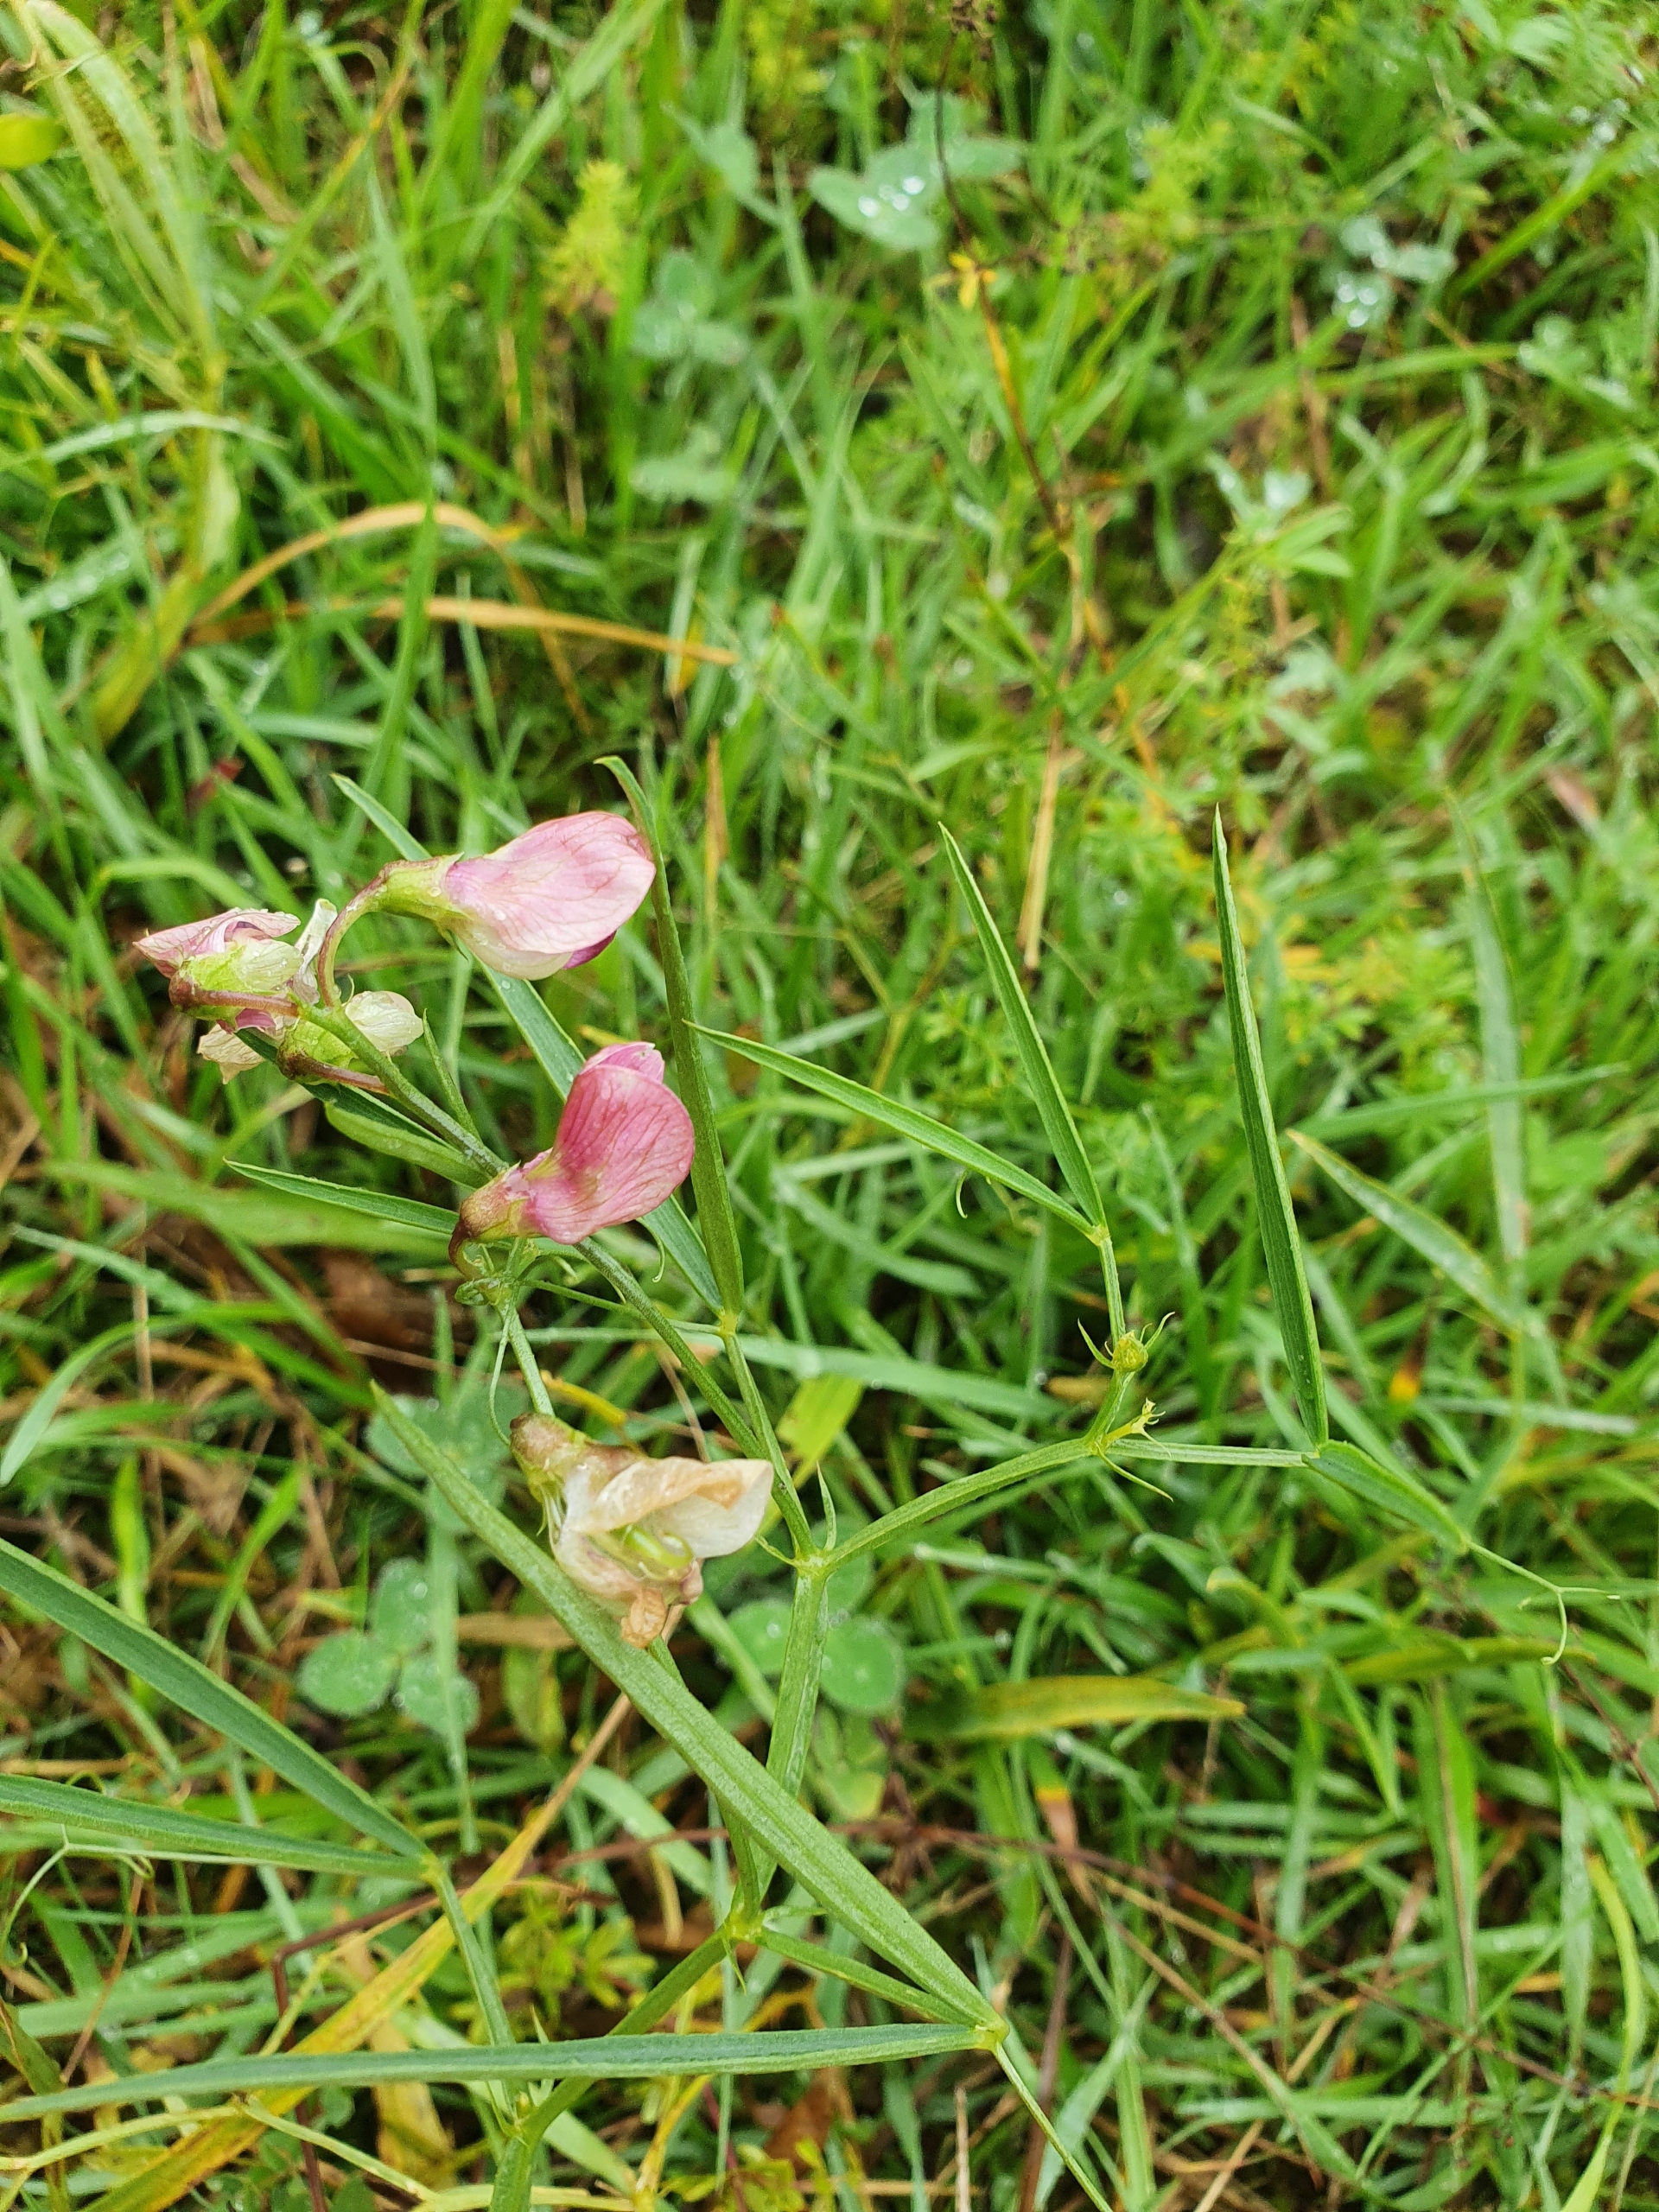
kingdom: Plantae
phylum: Tracheophyta
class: Magnoliopsida
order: Fabales
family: Fabaceae
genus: Lathyrus
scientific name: Lathyrus sylvestris
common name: Skov-fladbælg
